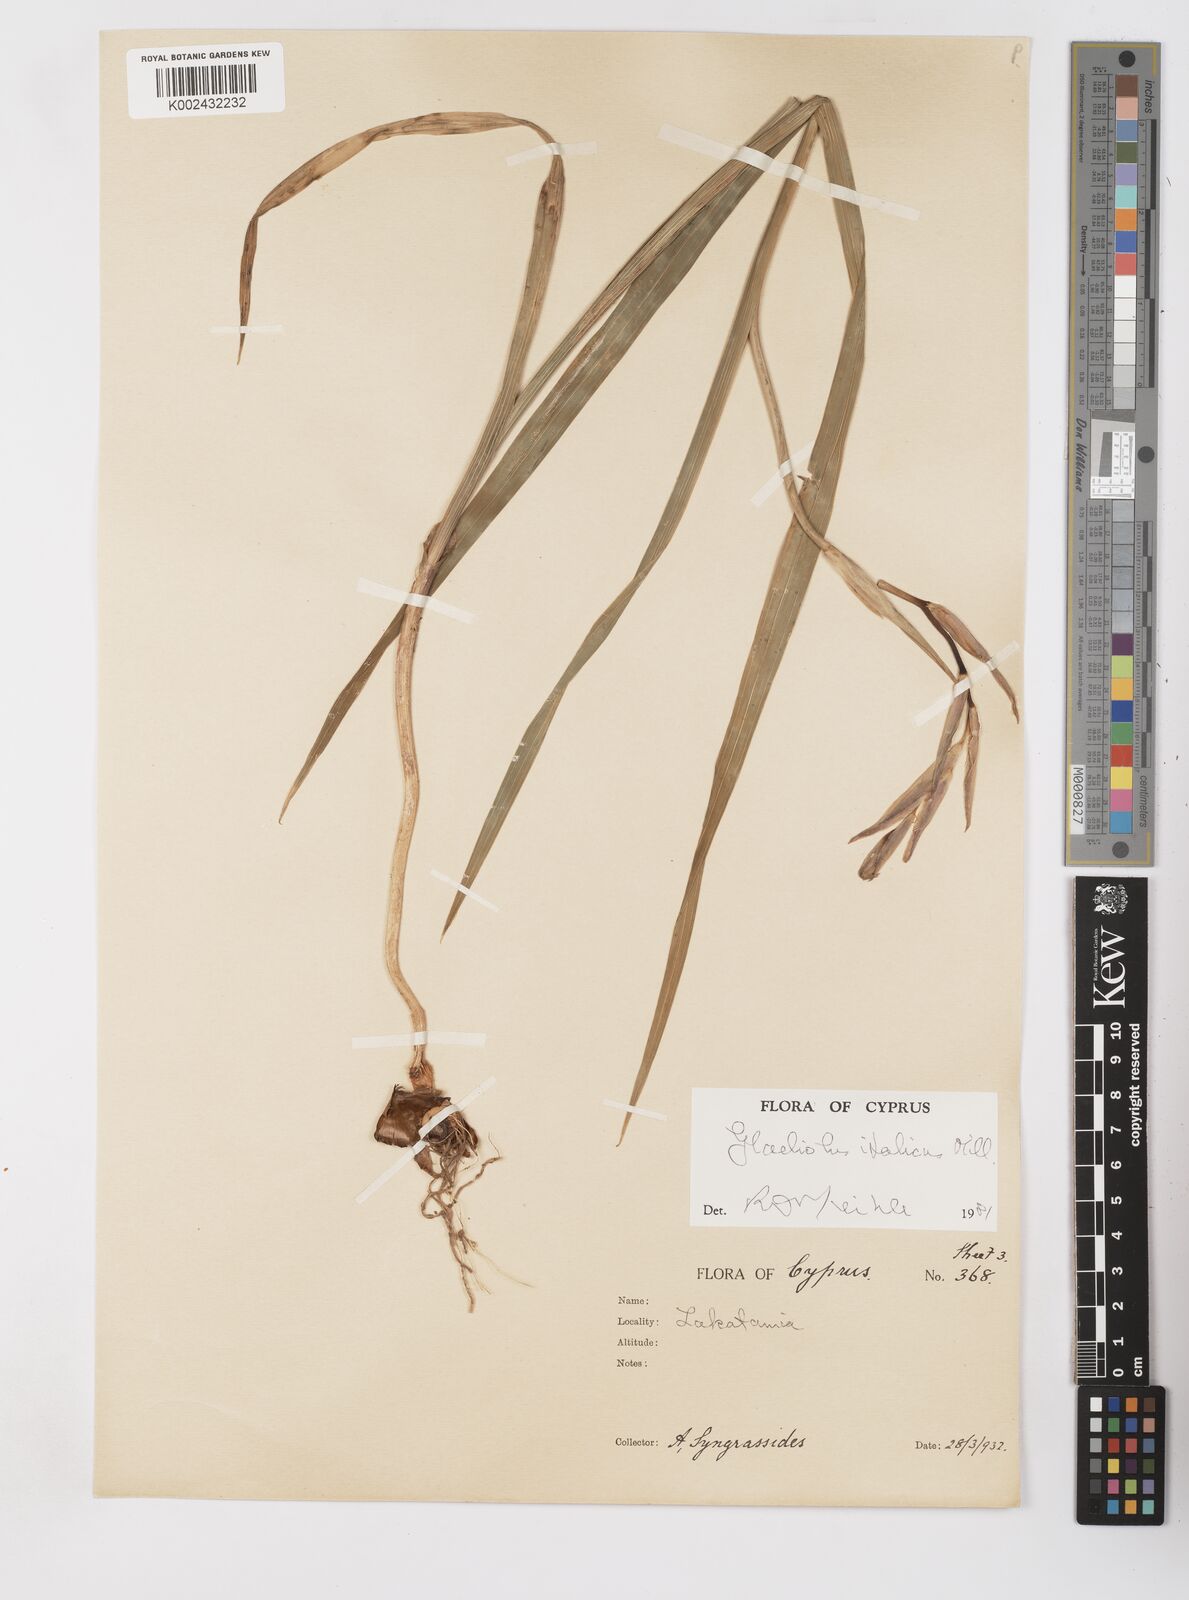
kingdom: Plantae
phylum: Tracheophyta
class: Liliopsida
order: Asparagales
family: Iridaceae
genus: Gladiolus
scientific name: Gladiolus italicus
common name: Field gladiolus
